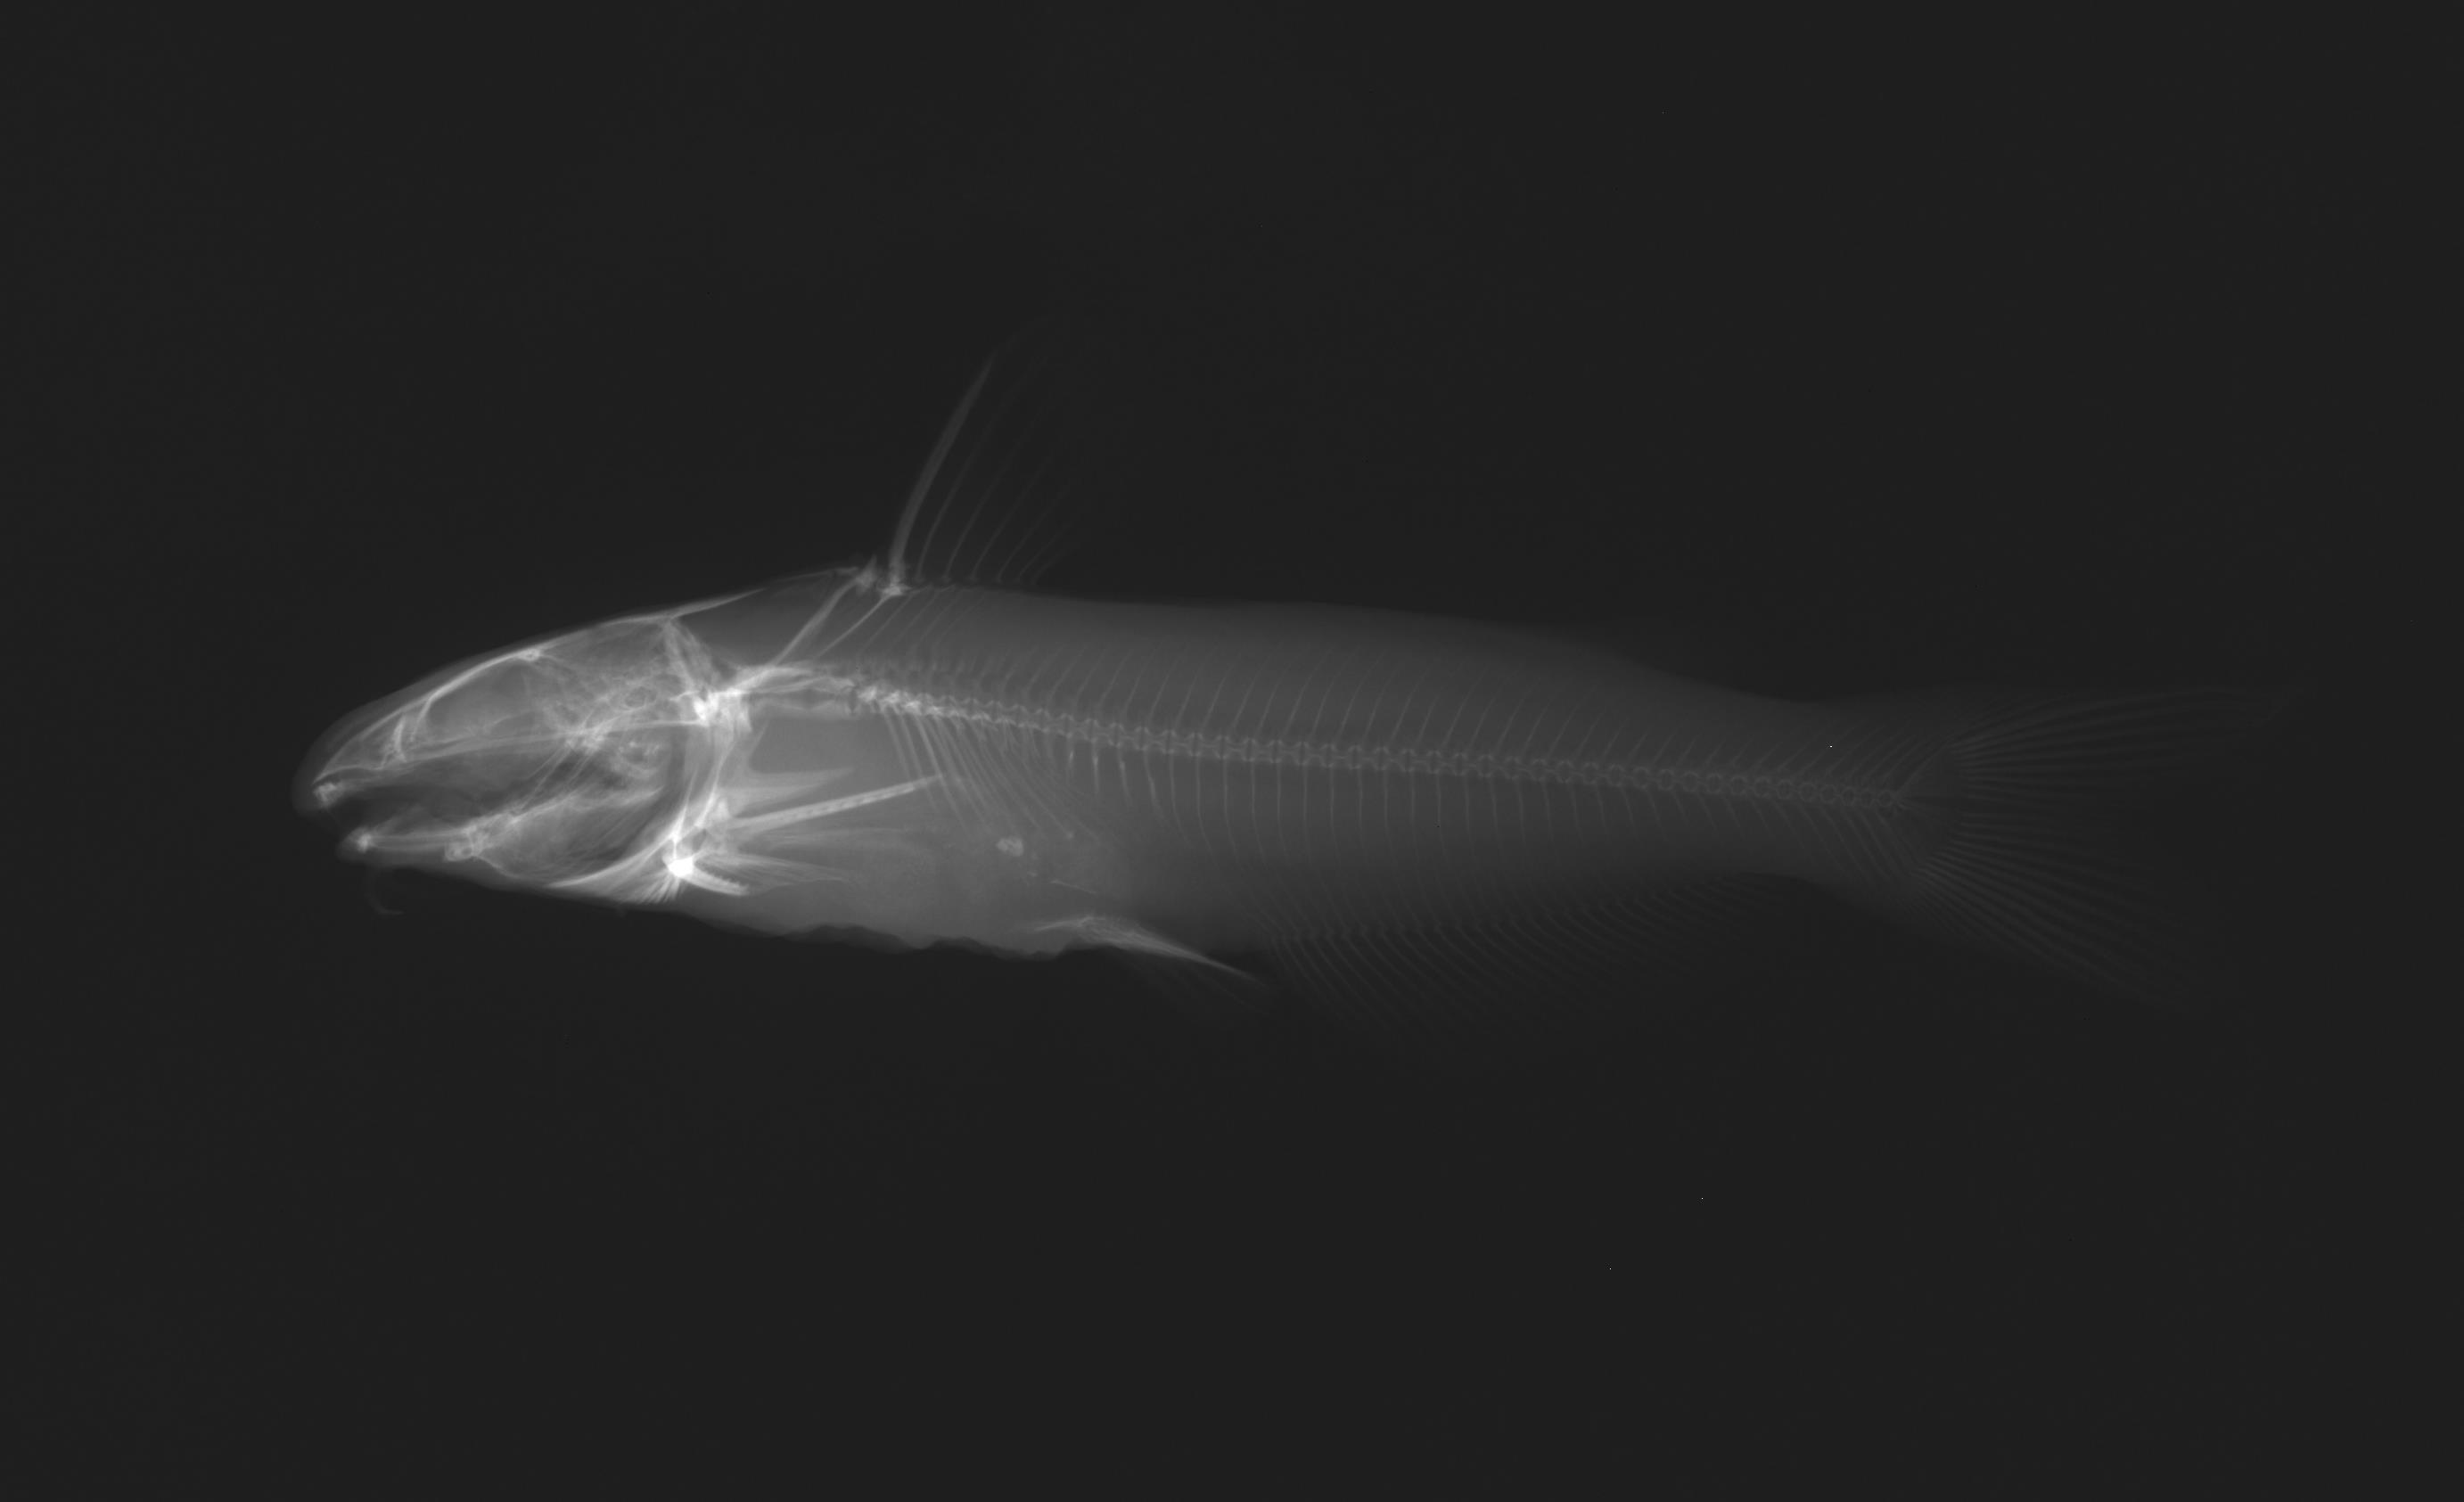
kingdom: Animalia
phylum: Chordata
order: Siluriformes
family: Ictaluridae
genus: Ictalurus
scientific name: Ictalurus punctatus
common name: Channel catfish
